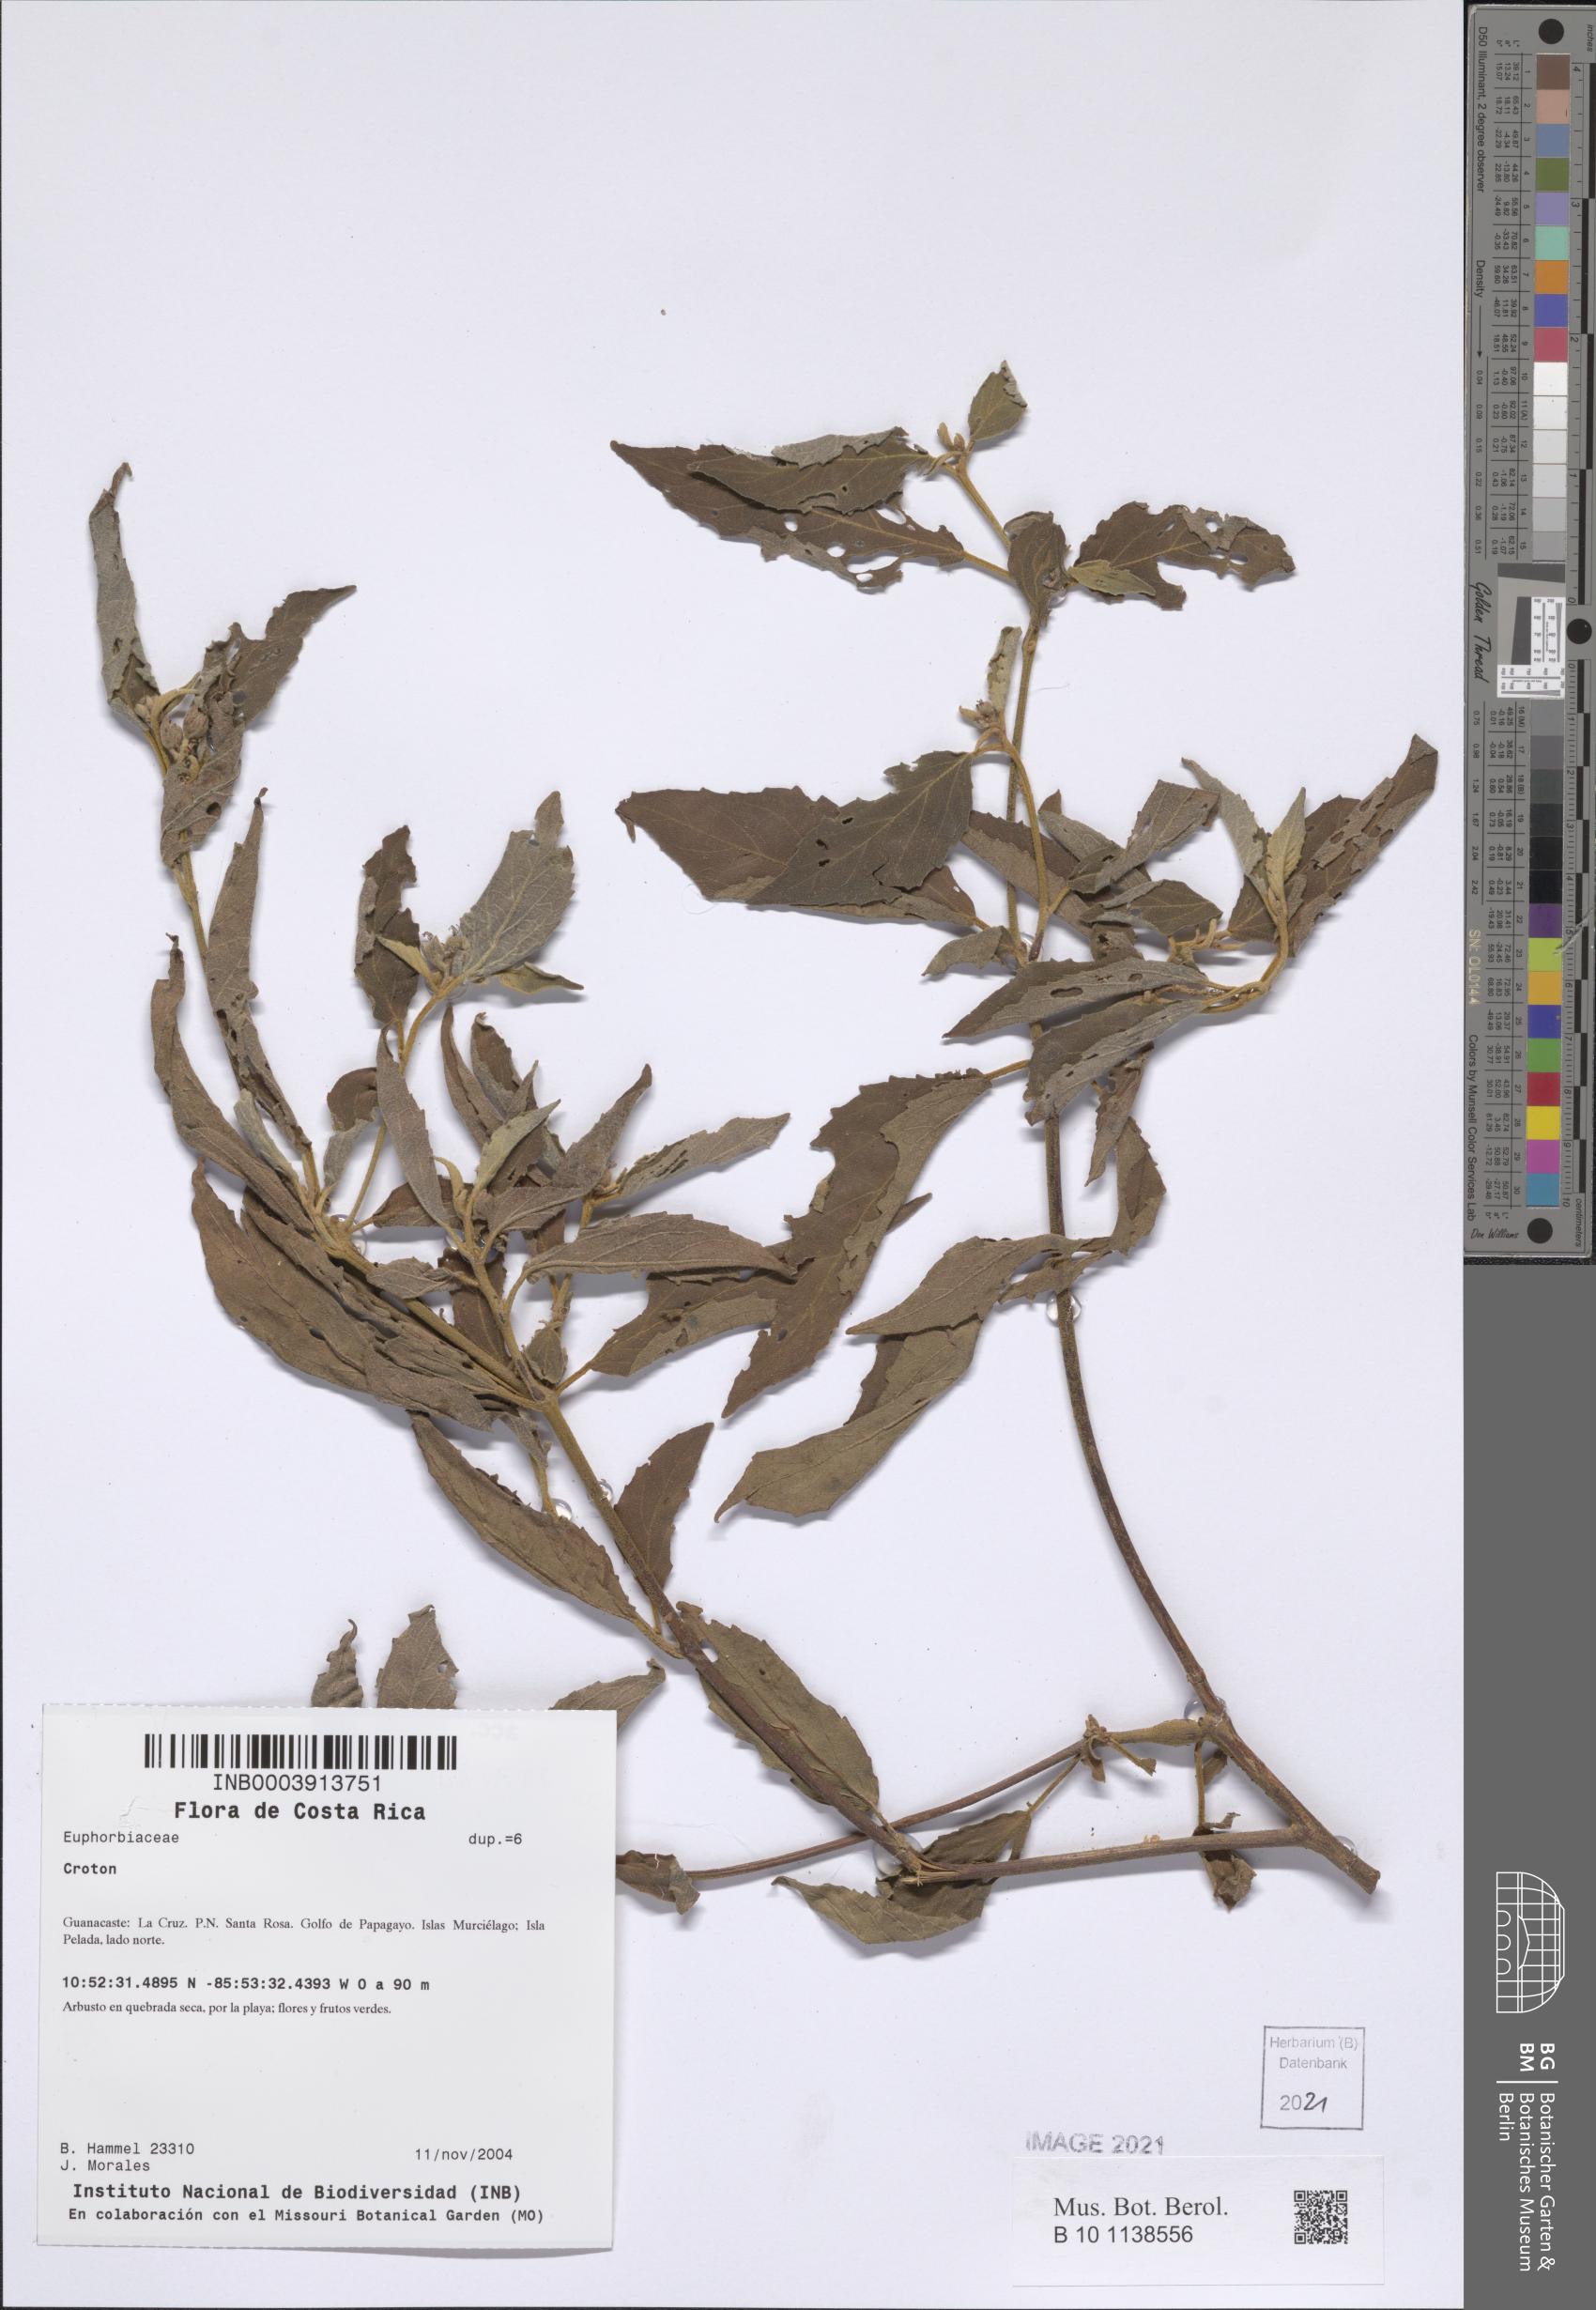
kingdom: Plantae
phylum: Tracheophyta
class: Magnoliopsida
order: Malpighiales
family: Euphorbiaceae
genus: Croton
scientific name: Croton jutiapensis
